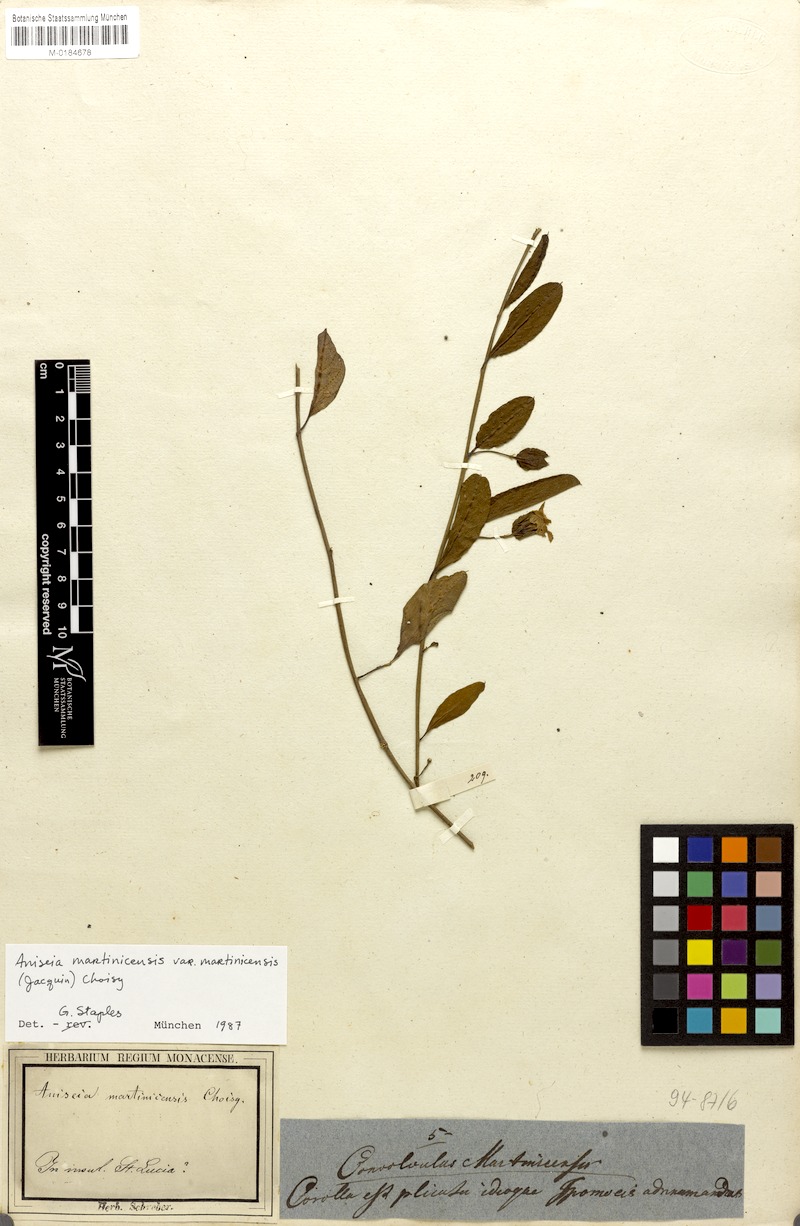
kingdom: Plantae
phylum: Tracheophyta
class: Magnoliopsida
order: Solanales
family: Convolvulaceae
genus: Aniseia
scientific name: Aniseia martinicensis
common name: Kulayadambu
